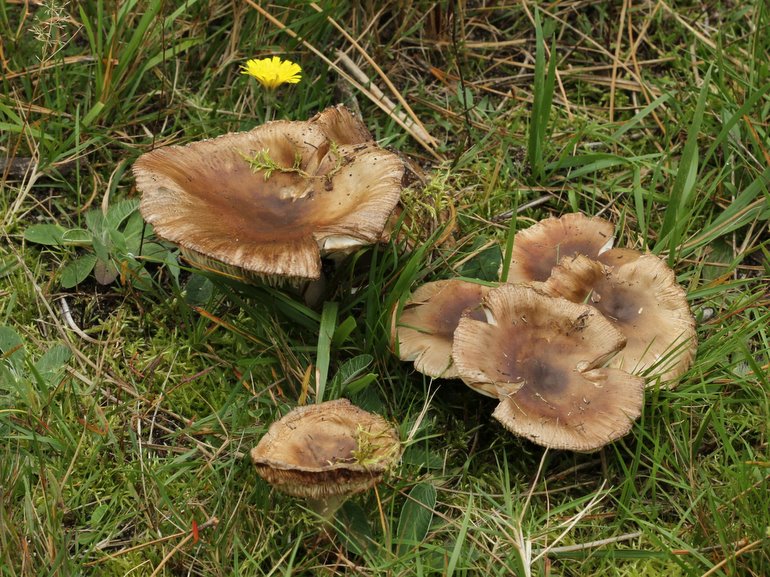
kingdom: Fungi
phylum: Basidiomycota
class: Agaricomycetes
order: Russulales
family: Russulaceae
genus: Russula
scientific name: Russula amoenolens
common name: skarp kam-skørhat
